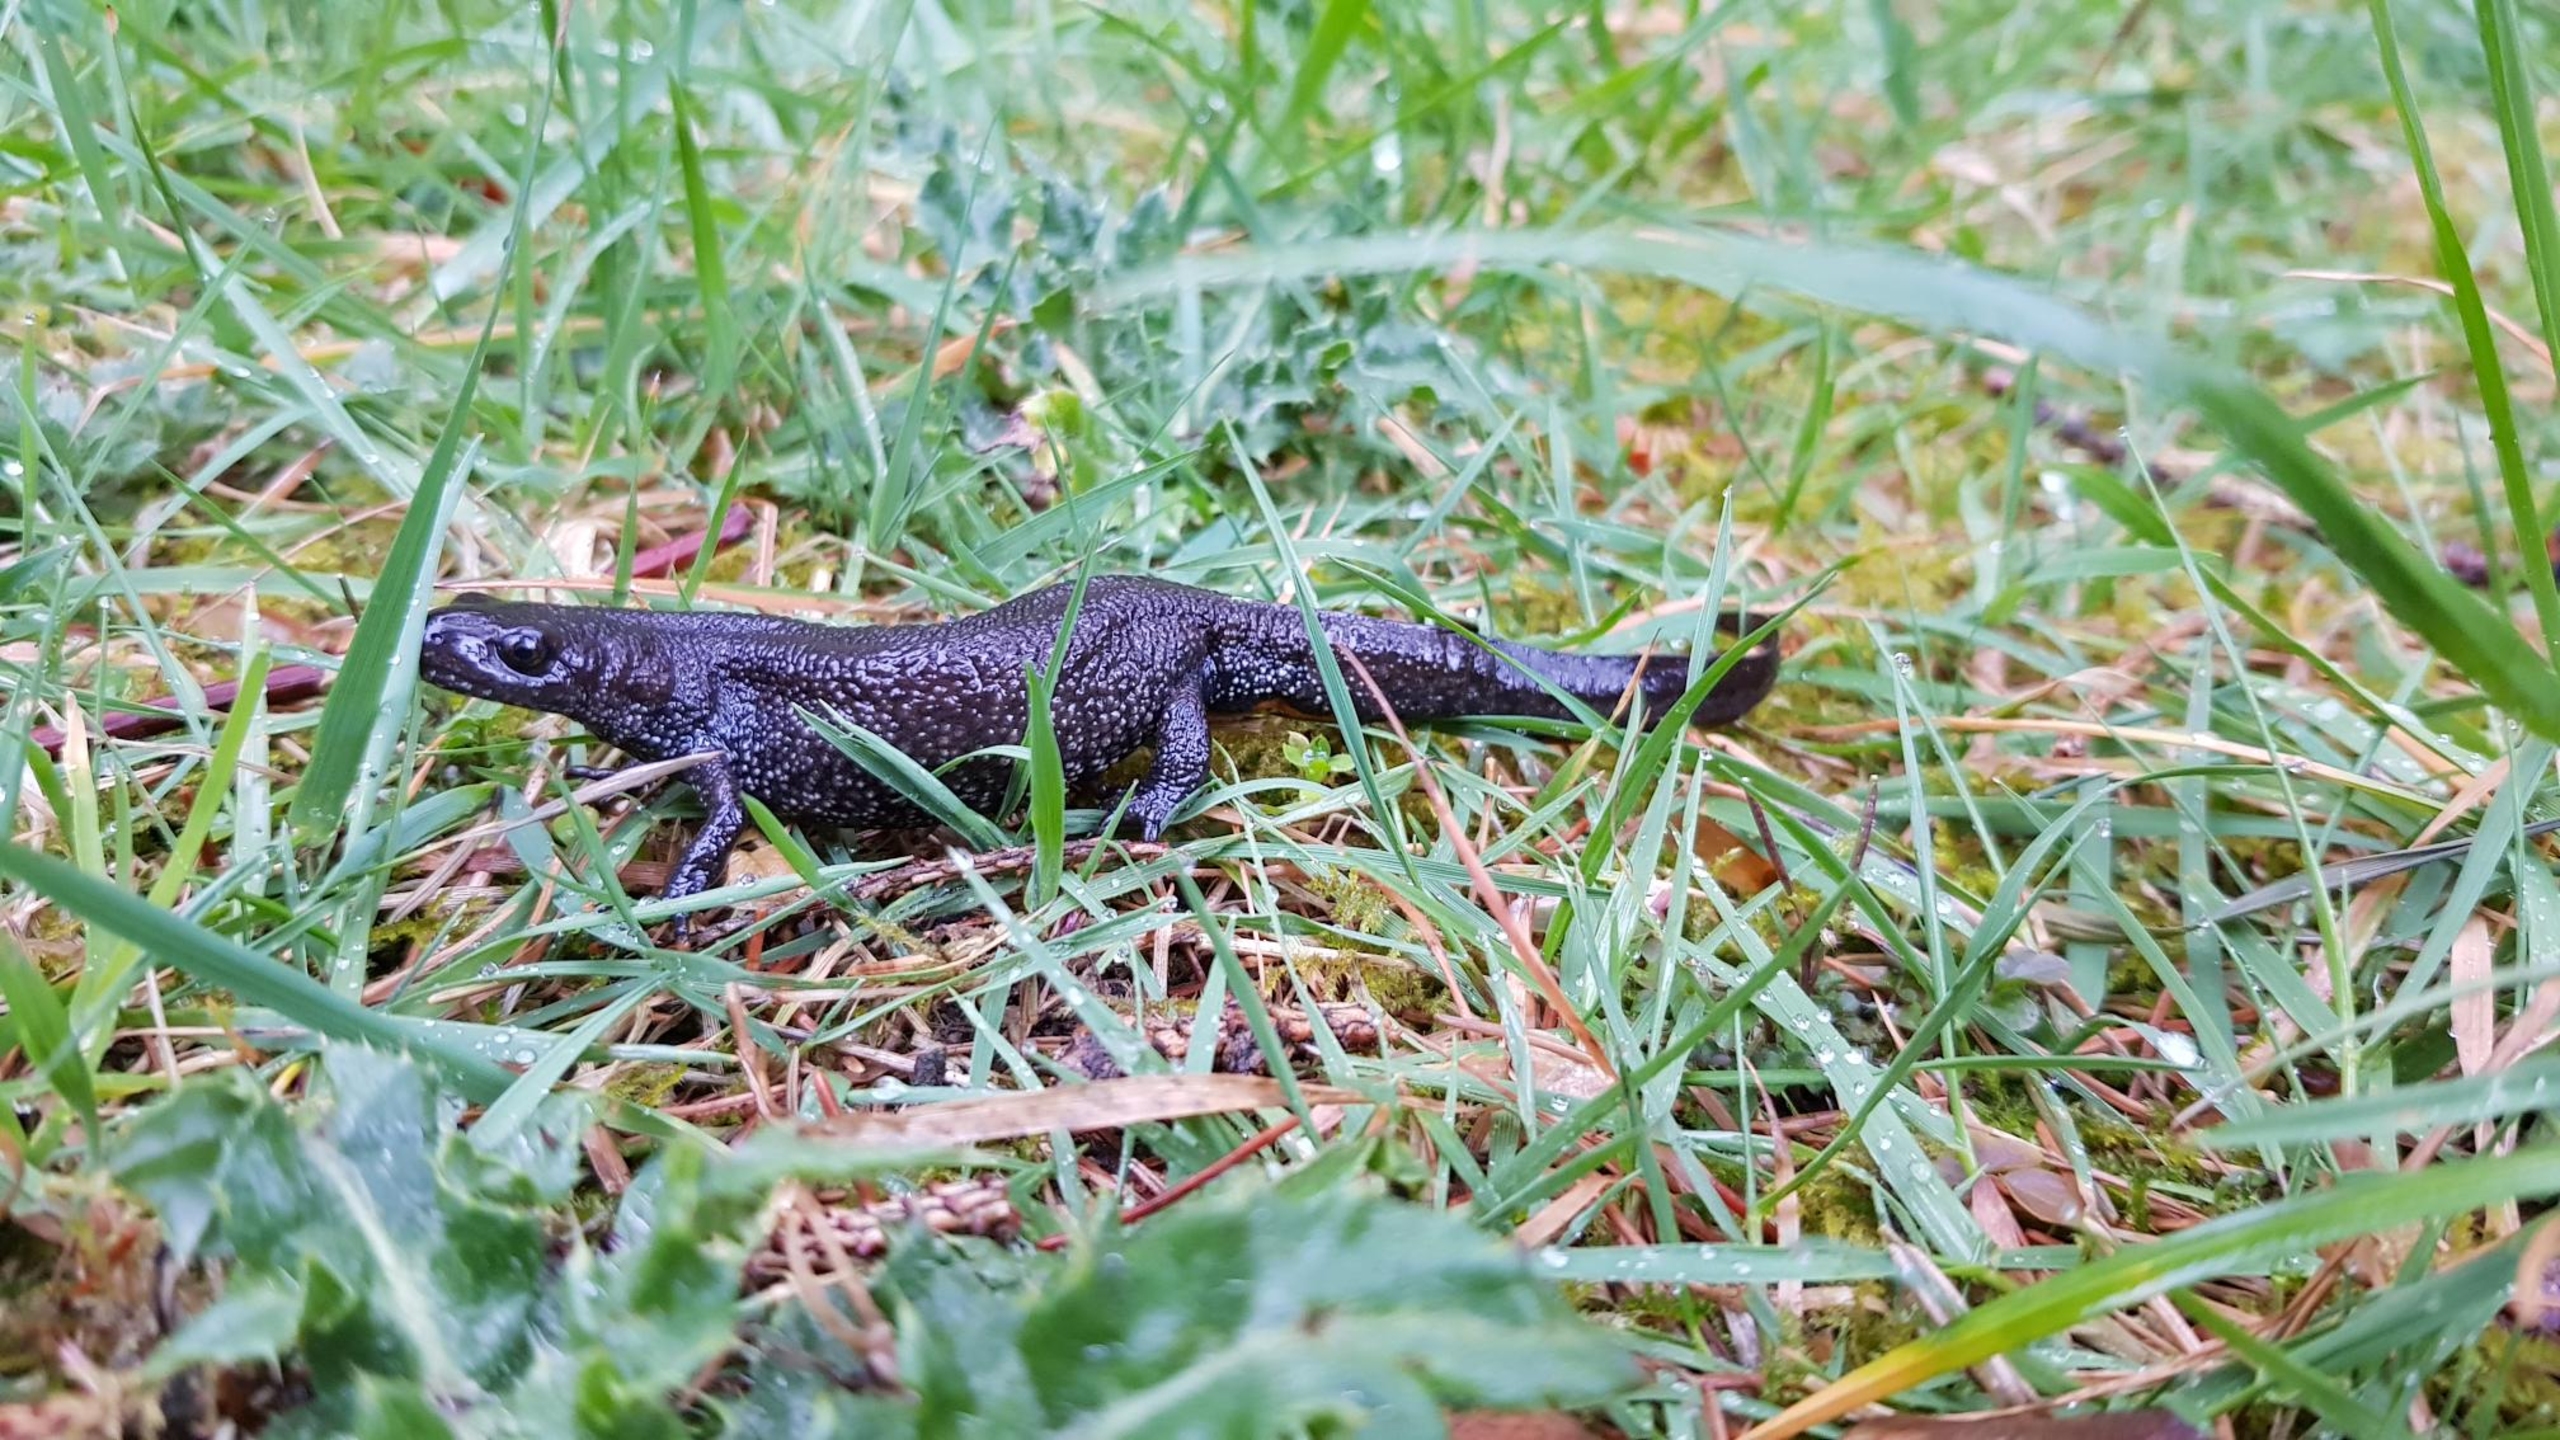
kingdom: Animalia
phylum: Chordata
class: Amphibia
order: Caudata
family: Salamandridae
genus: Triturus
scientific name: Triturus cristatus
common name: Stor vandsalamander
